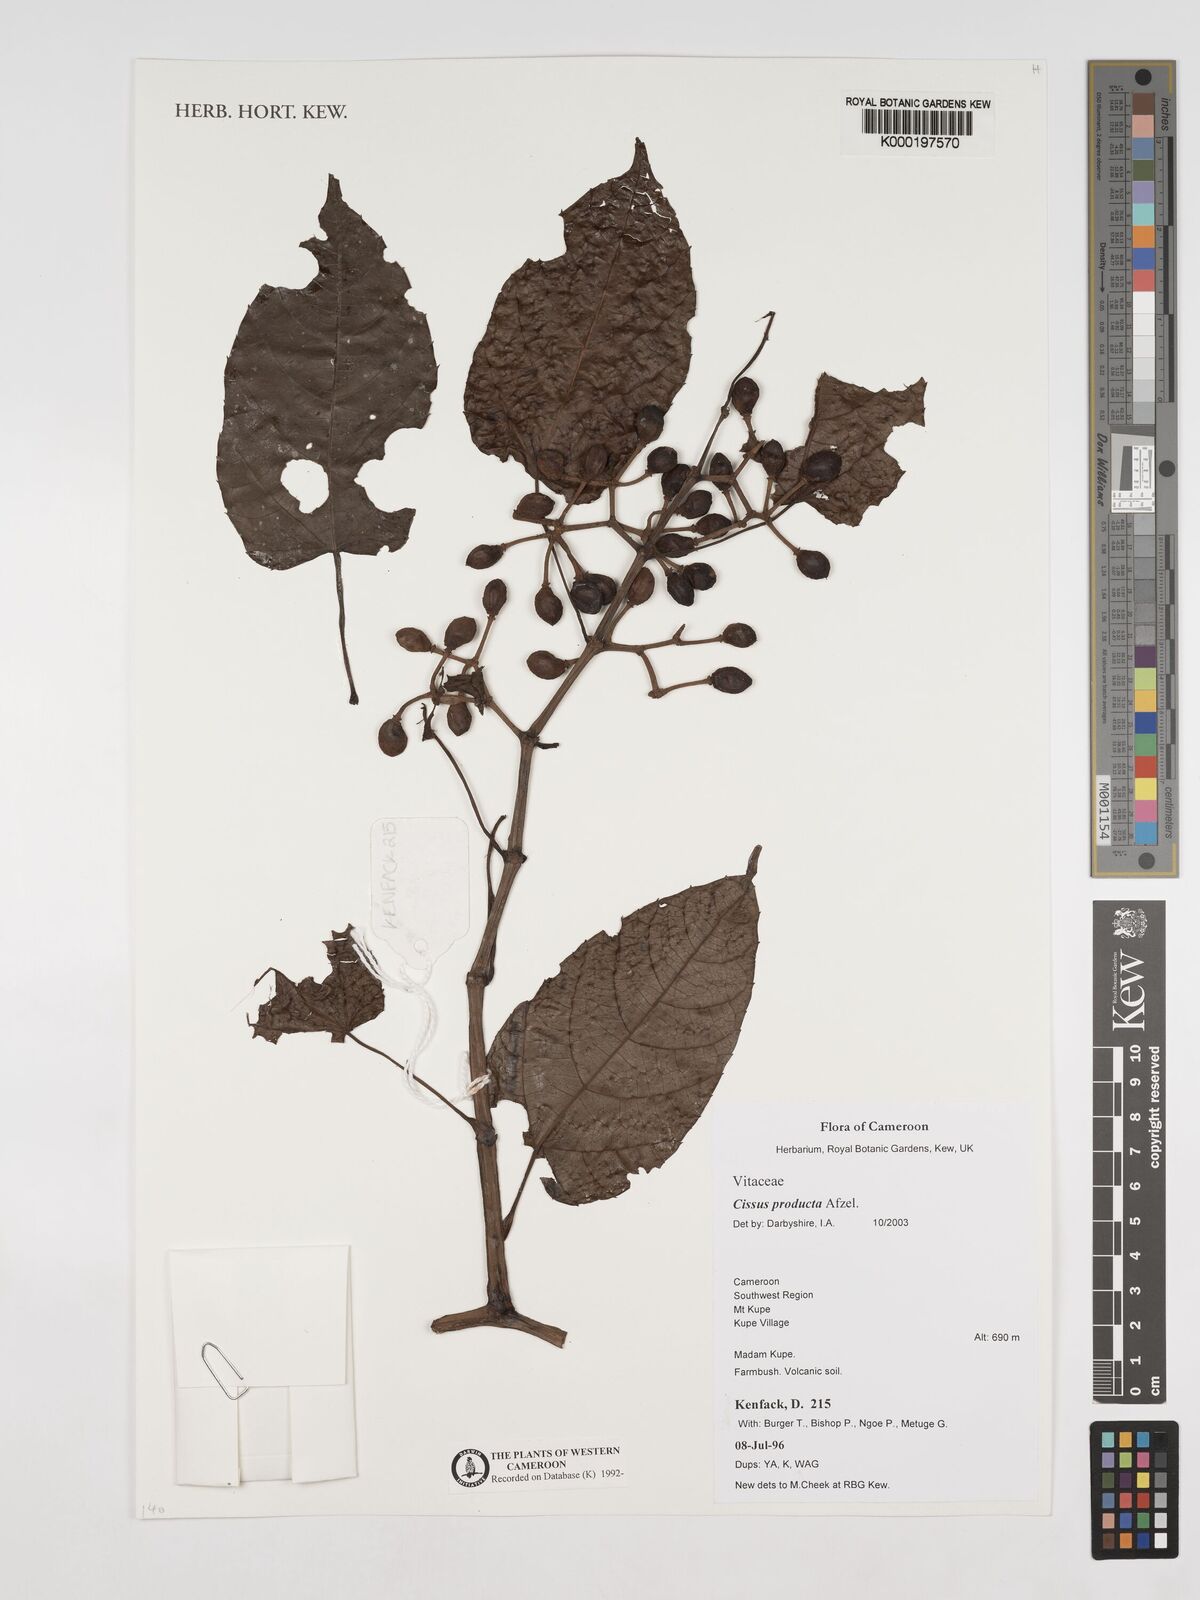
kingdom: Plantae
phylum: Tracheophyta
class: Magnoliopsida
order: Vitales
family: Vitaceae
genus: Cissus
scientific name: Cissus producta
